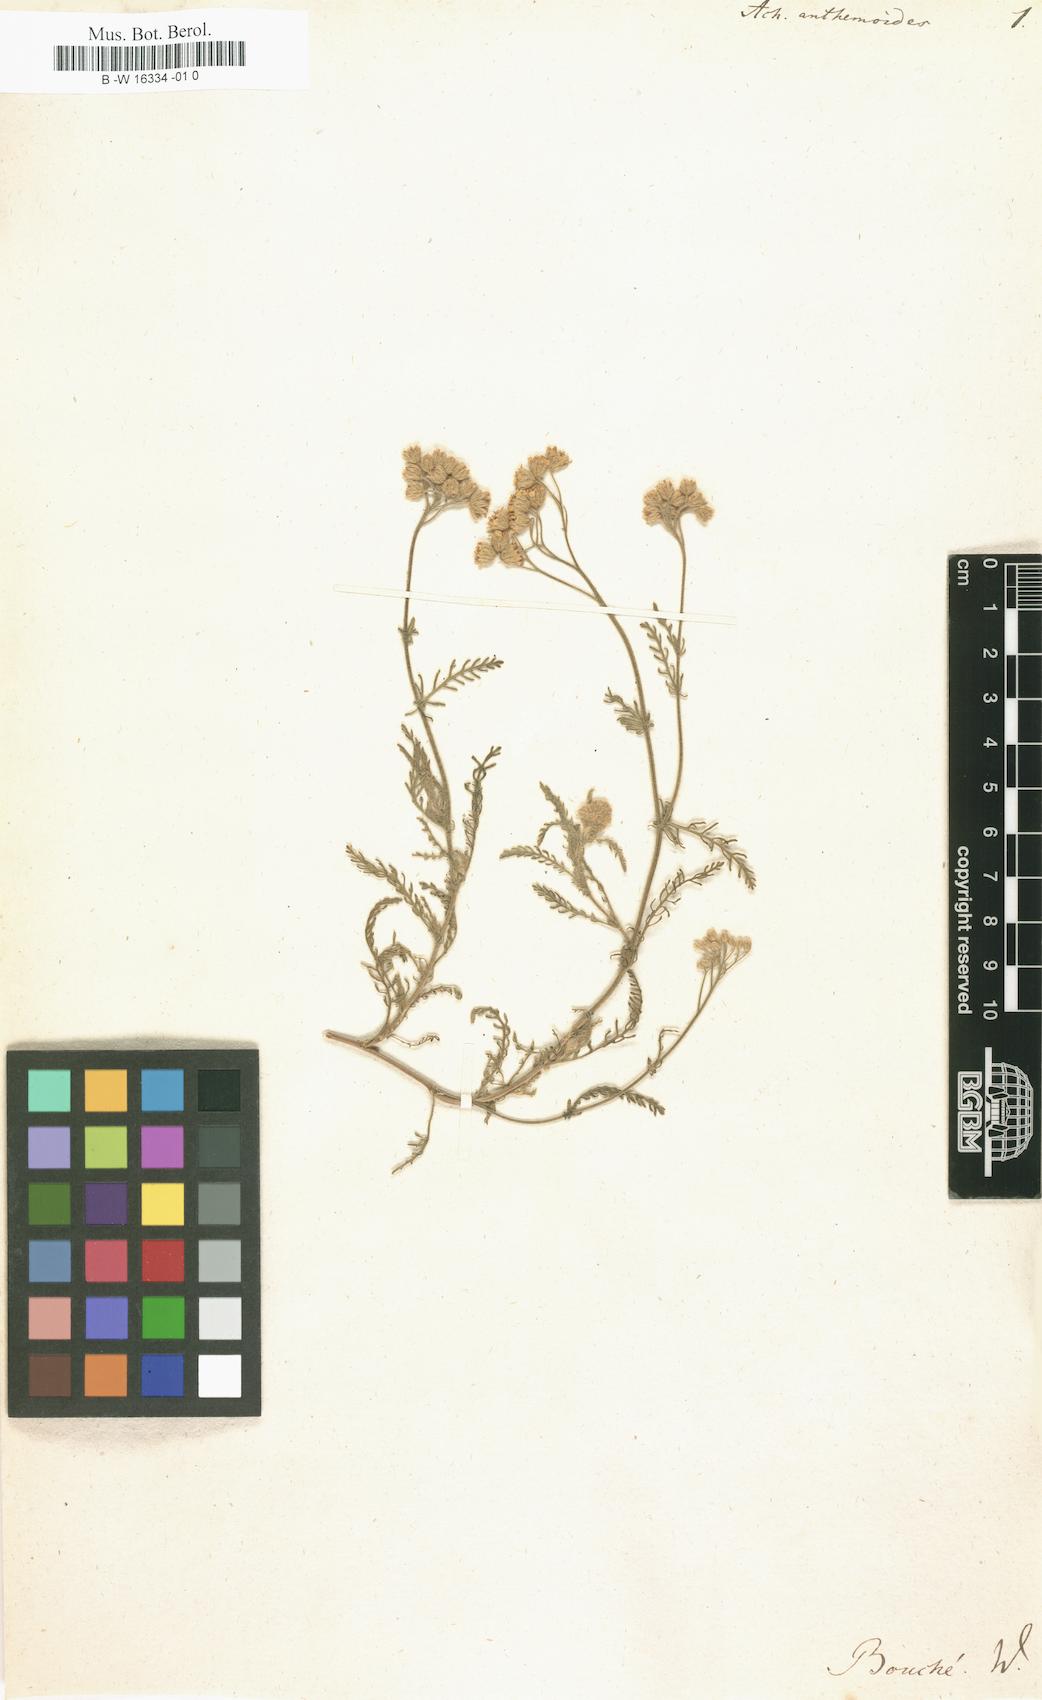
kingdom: Plantae
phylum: Tracheophyta
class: Magnoliopsida
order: Asterales
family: Asteraceae
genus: Anthemis
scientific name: Anthemis anthemiformis
